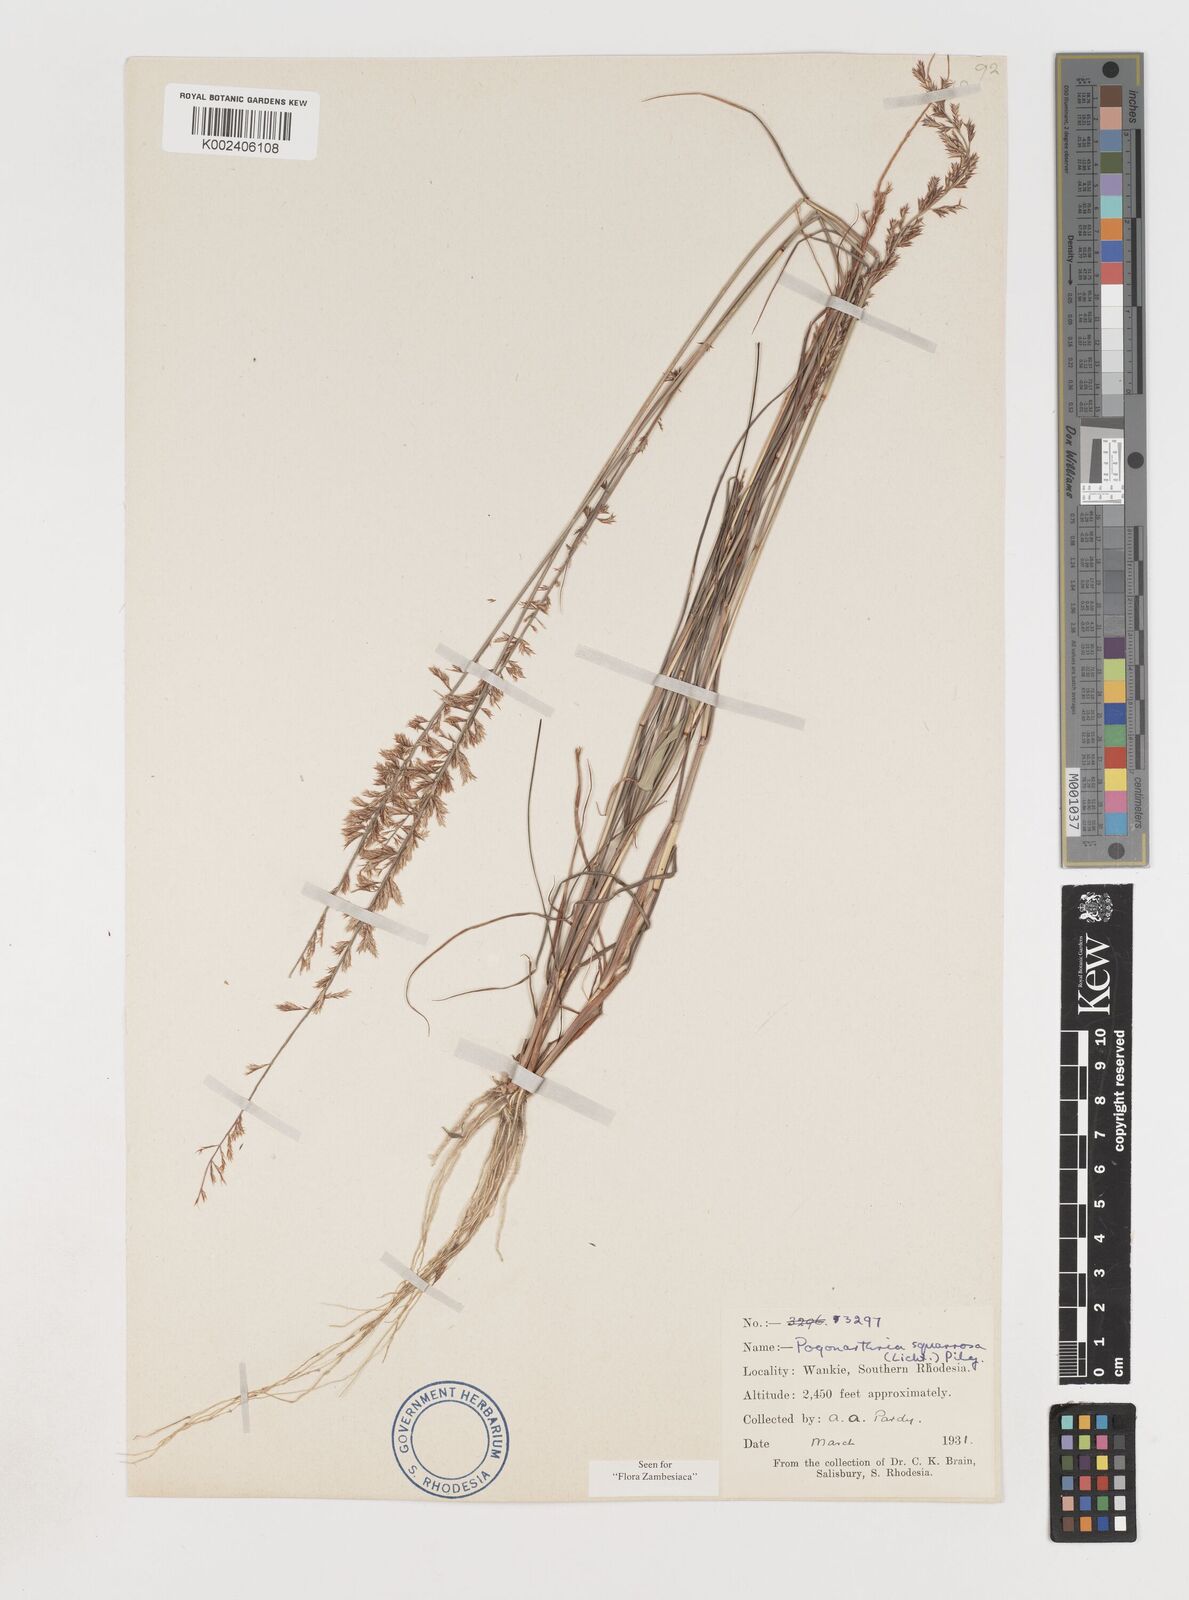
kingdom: Plantae
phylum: Tracheophyta
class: Liliopsida
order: Poales
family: Poaceae
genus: Pogonarthria
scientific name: Pogonarthria squarrosa
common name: Grass
